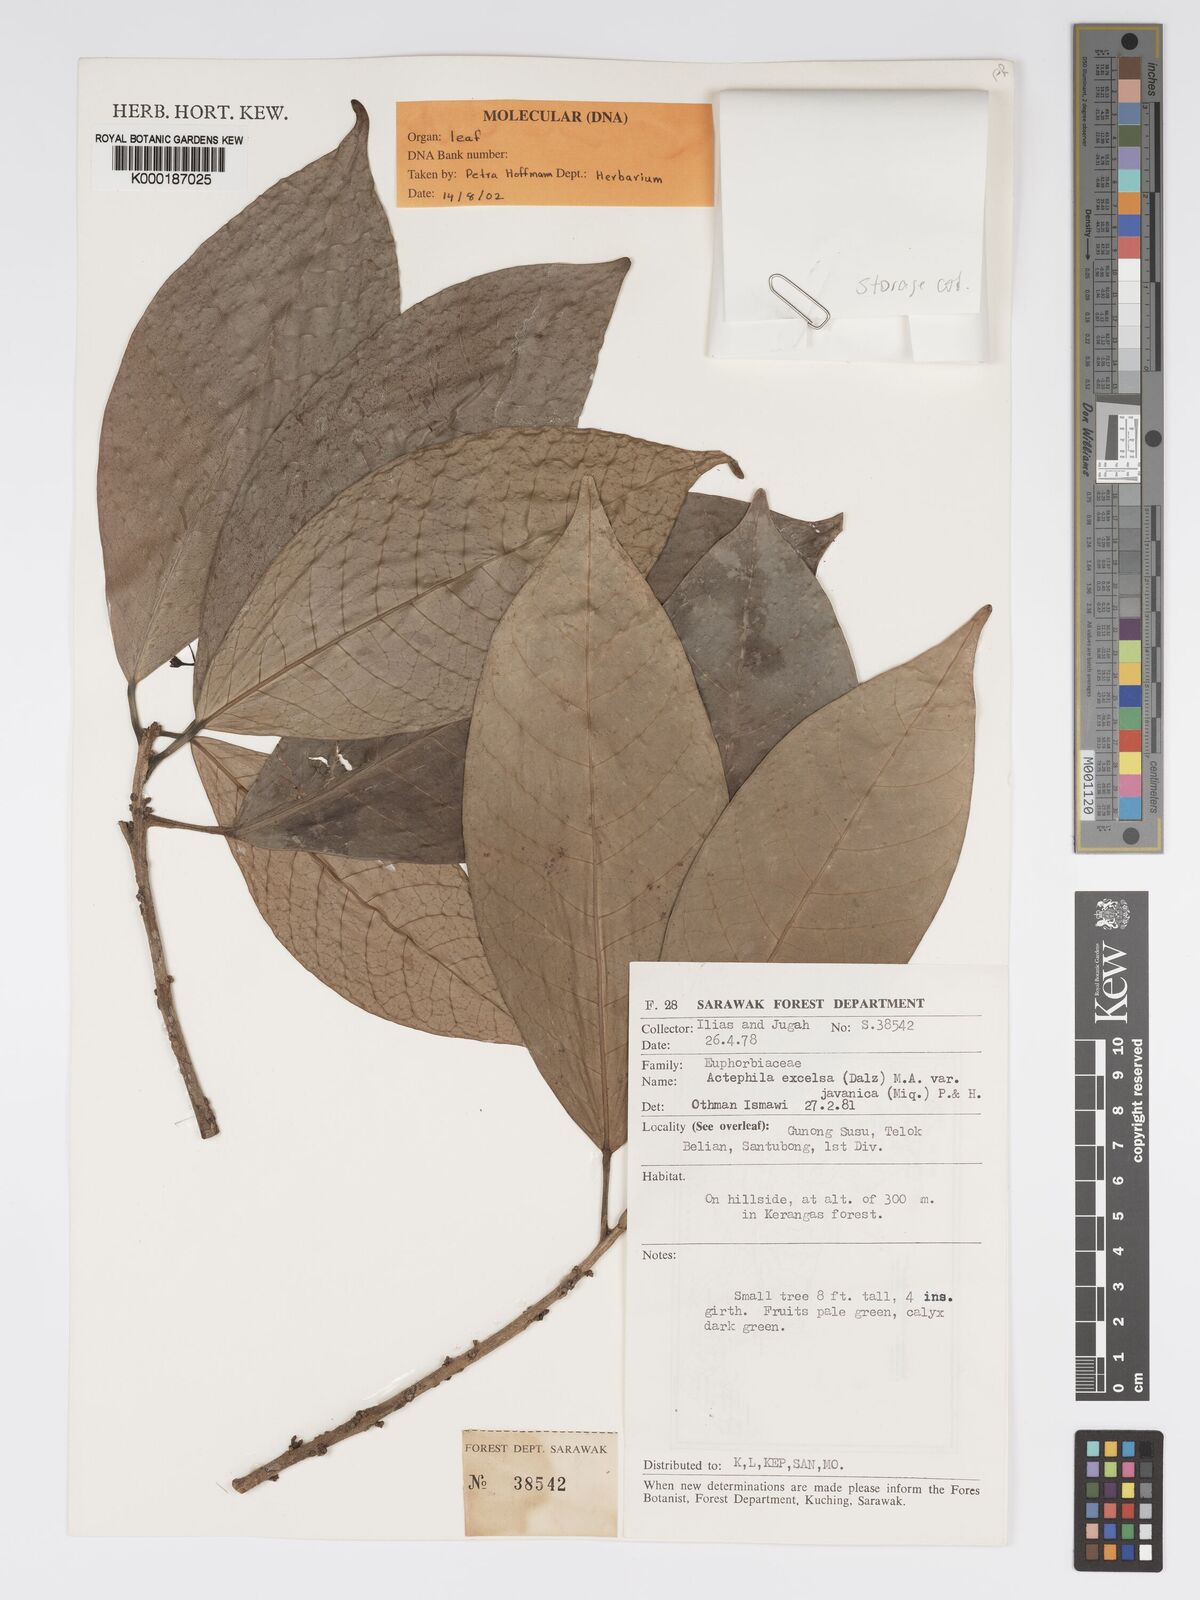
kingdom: Plantae
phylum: Tracheophyta
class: Magnoliopsida
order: Malpighiales
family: Phyllanthaceae
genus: Actephila
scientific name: Actephila
